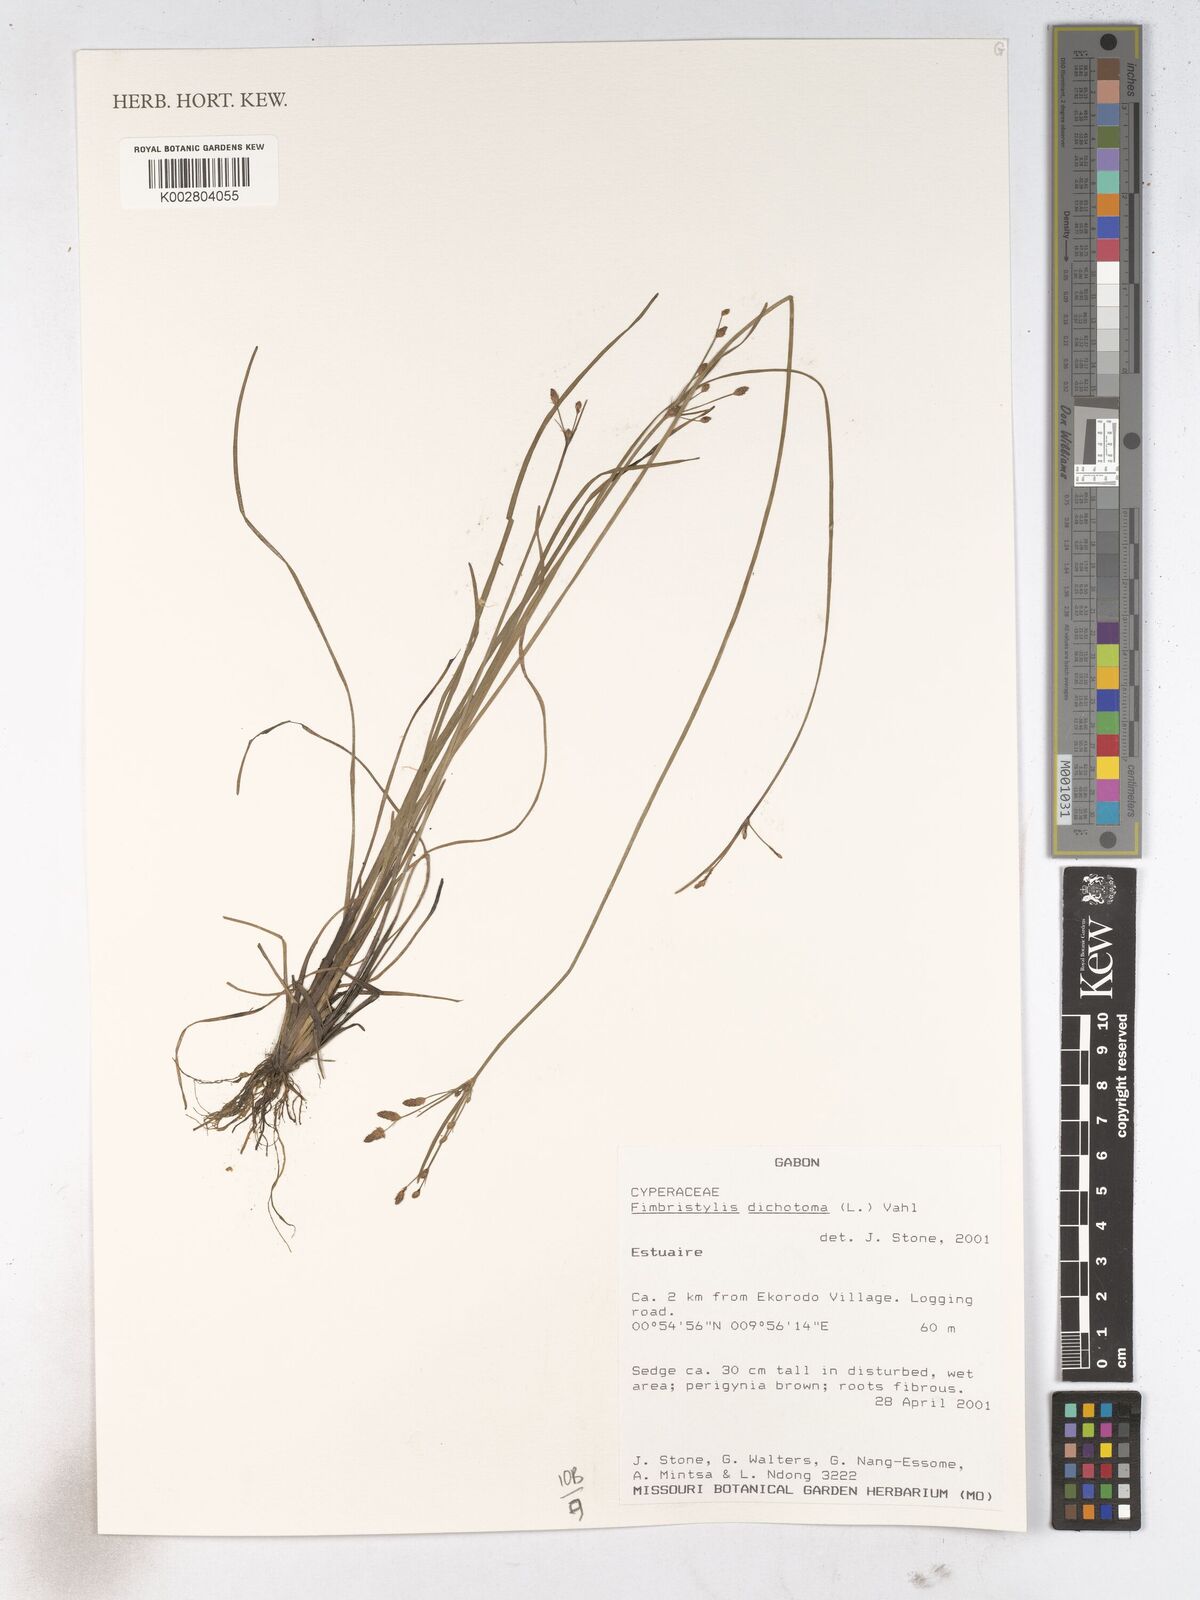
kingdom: Plantae
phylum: Tracheophyta
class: Liliopsida
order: Poales
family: Cyperaceae
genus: Fimbristylis
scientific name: Fimbristylis dichotoma
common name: Forked fimbry
